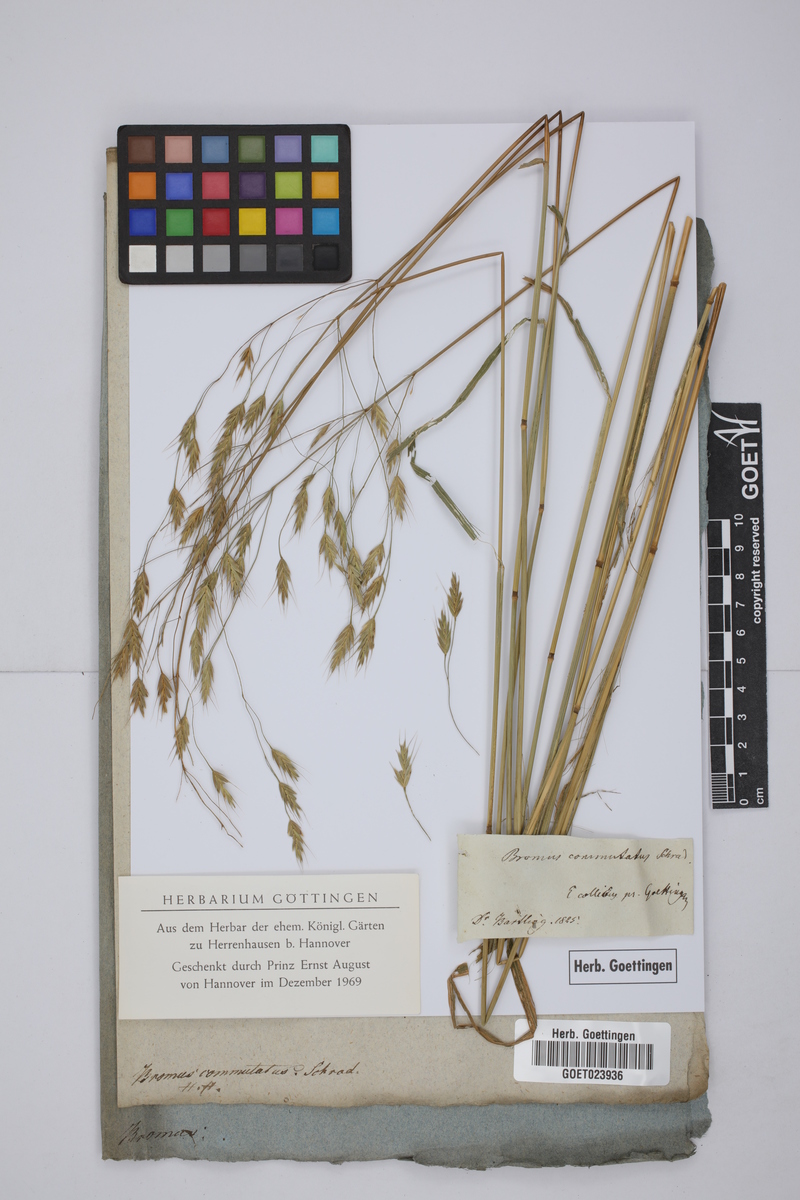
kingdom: Plantae
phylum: Tracheophyta
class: Liliopsida
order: Poales
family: Poaceae
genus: Bromus
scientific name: Bromus commutatus
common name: Meadow brome
